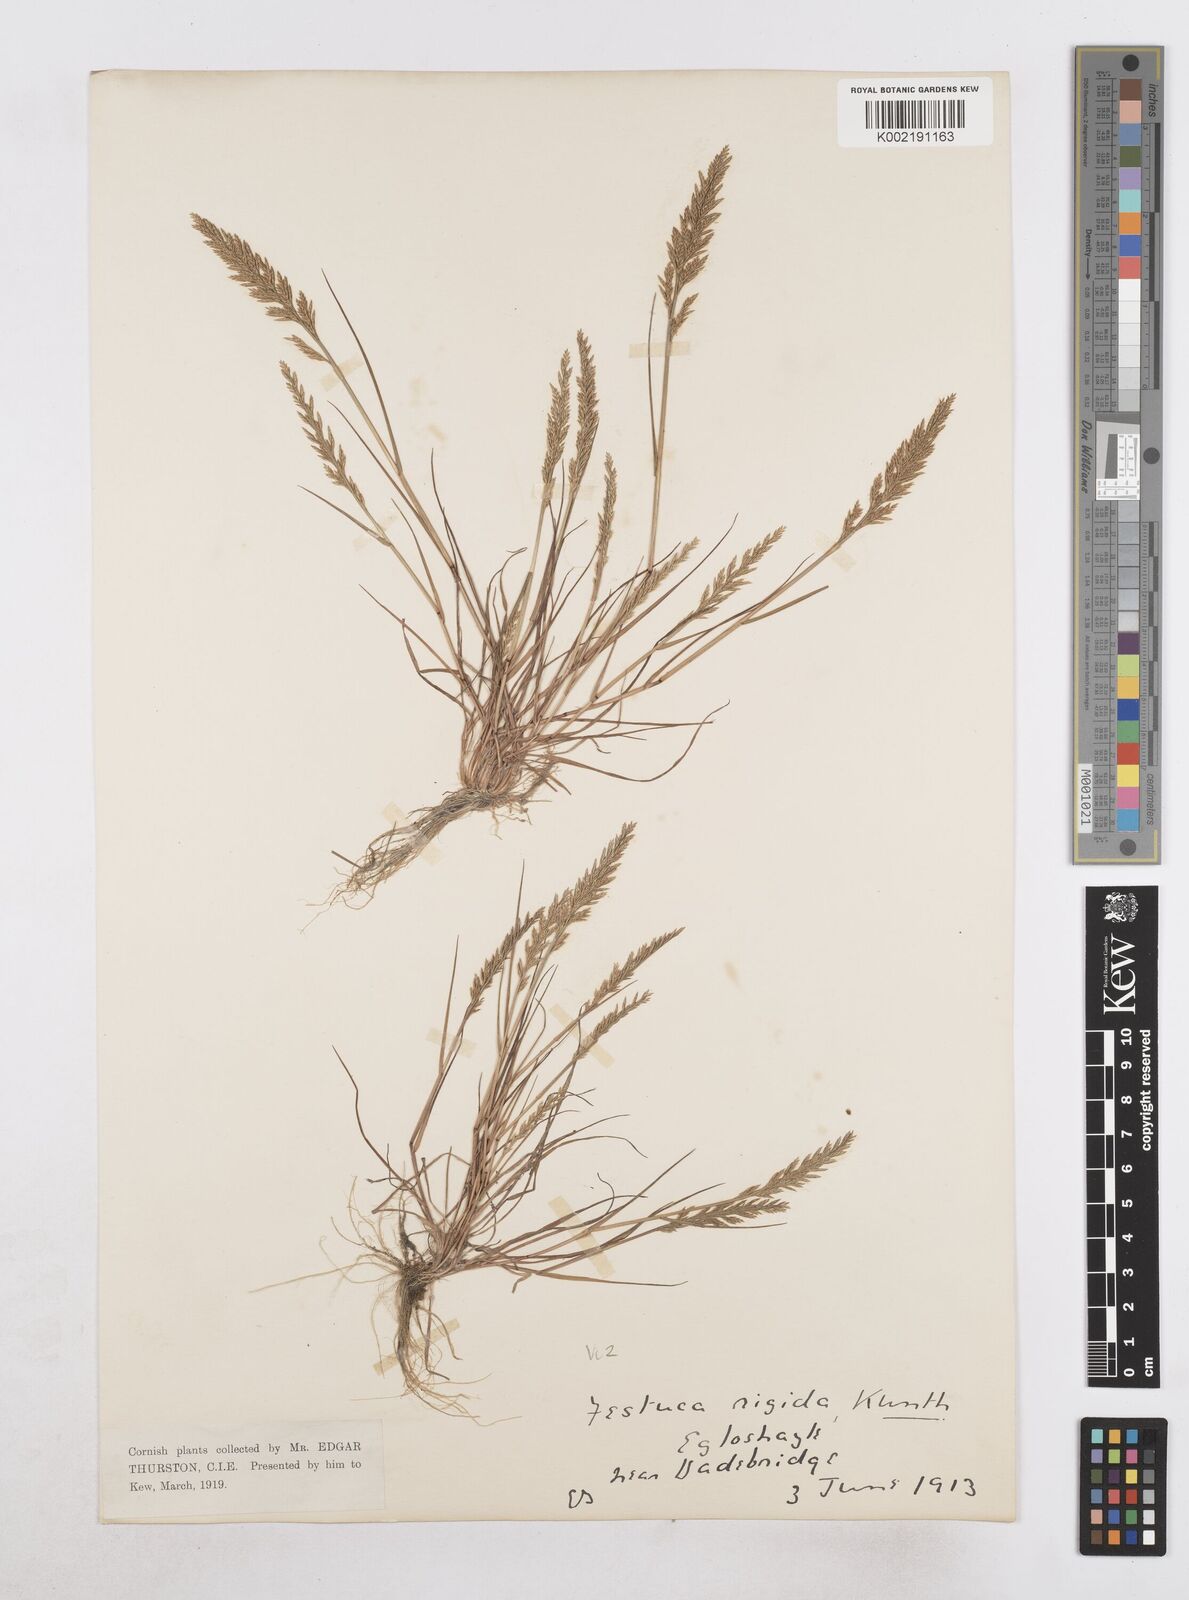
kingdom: Plantae
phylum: Tracheophyta
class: Liliopsida
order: Poales
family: Poaceae
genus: Catapodium
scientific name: Catapodium rigidum
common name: Fern-grass
